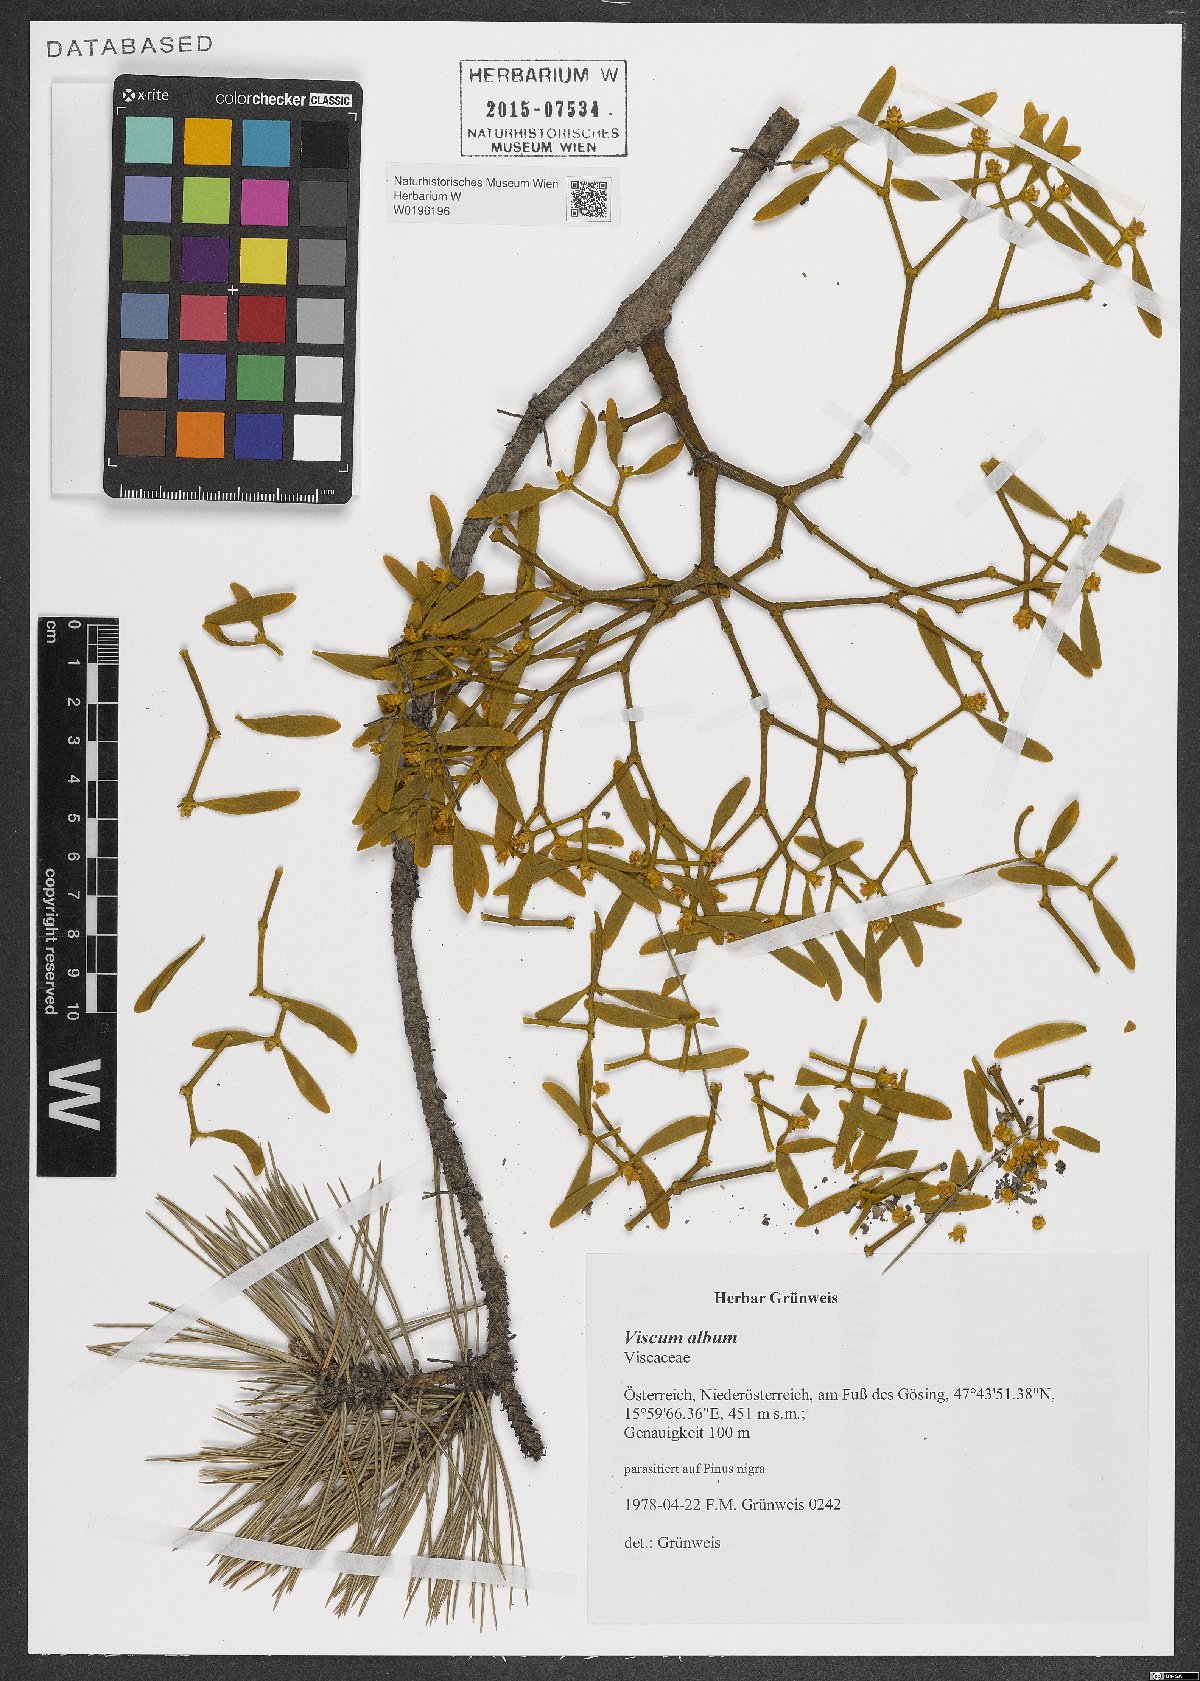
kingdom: Plantae
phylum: Tracheophyta
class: Magnoliopsida
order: Santalales
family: Viscaceae
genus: Viscum
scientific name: Viscum album
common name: Mistletoe
